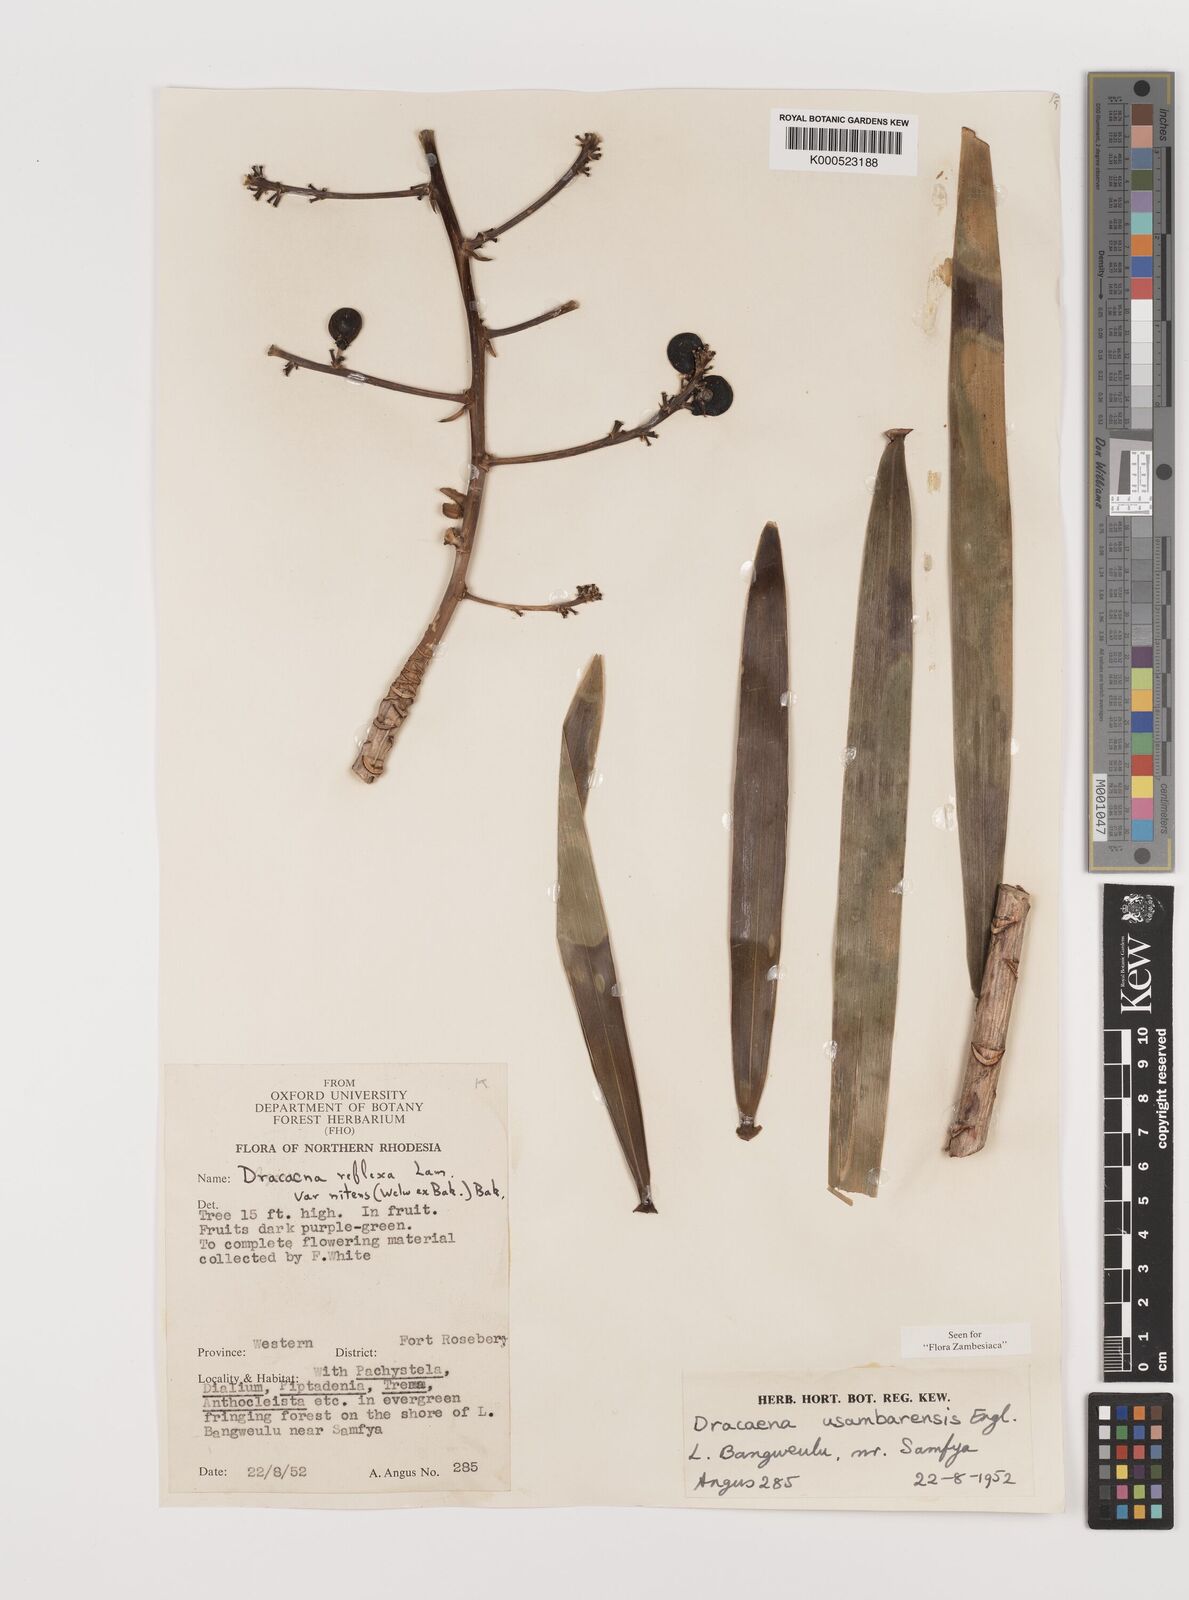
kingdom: Plantae
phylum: Tracheophyta
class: Liliopsida
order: Asparagales
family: Asparagaceae
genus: Dracaena
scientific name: Dracaena usambarensis
